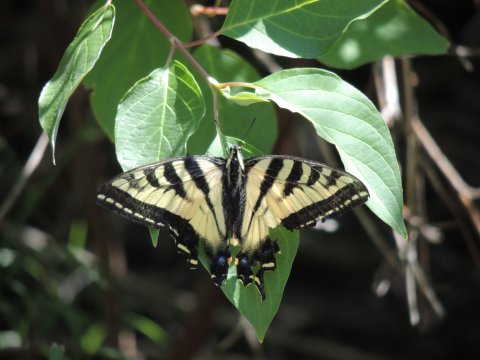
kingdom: Animalia
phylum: Arthropoda
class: Insecta
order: Lepidoptera
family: Papilionidae
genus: Pterourus
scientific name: Pterourus rutulus
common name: Western Tiger Swallowtail
